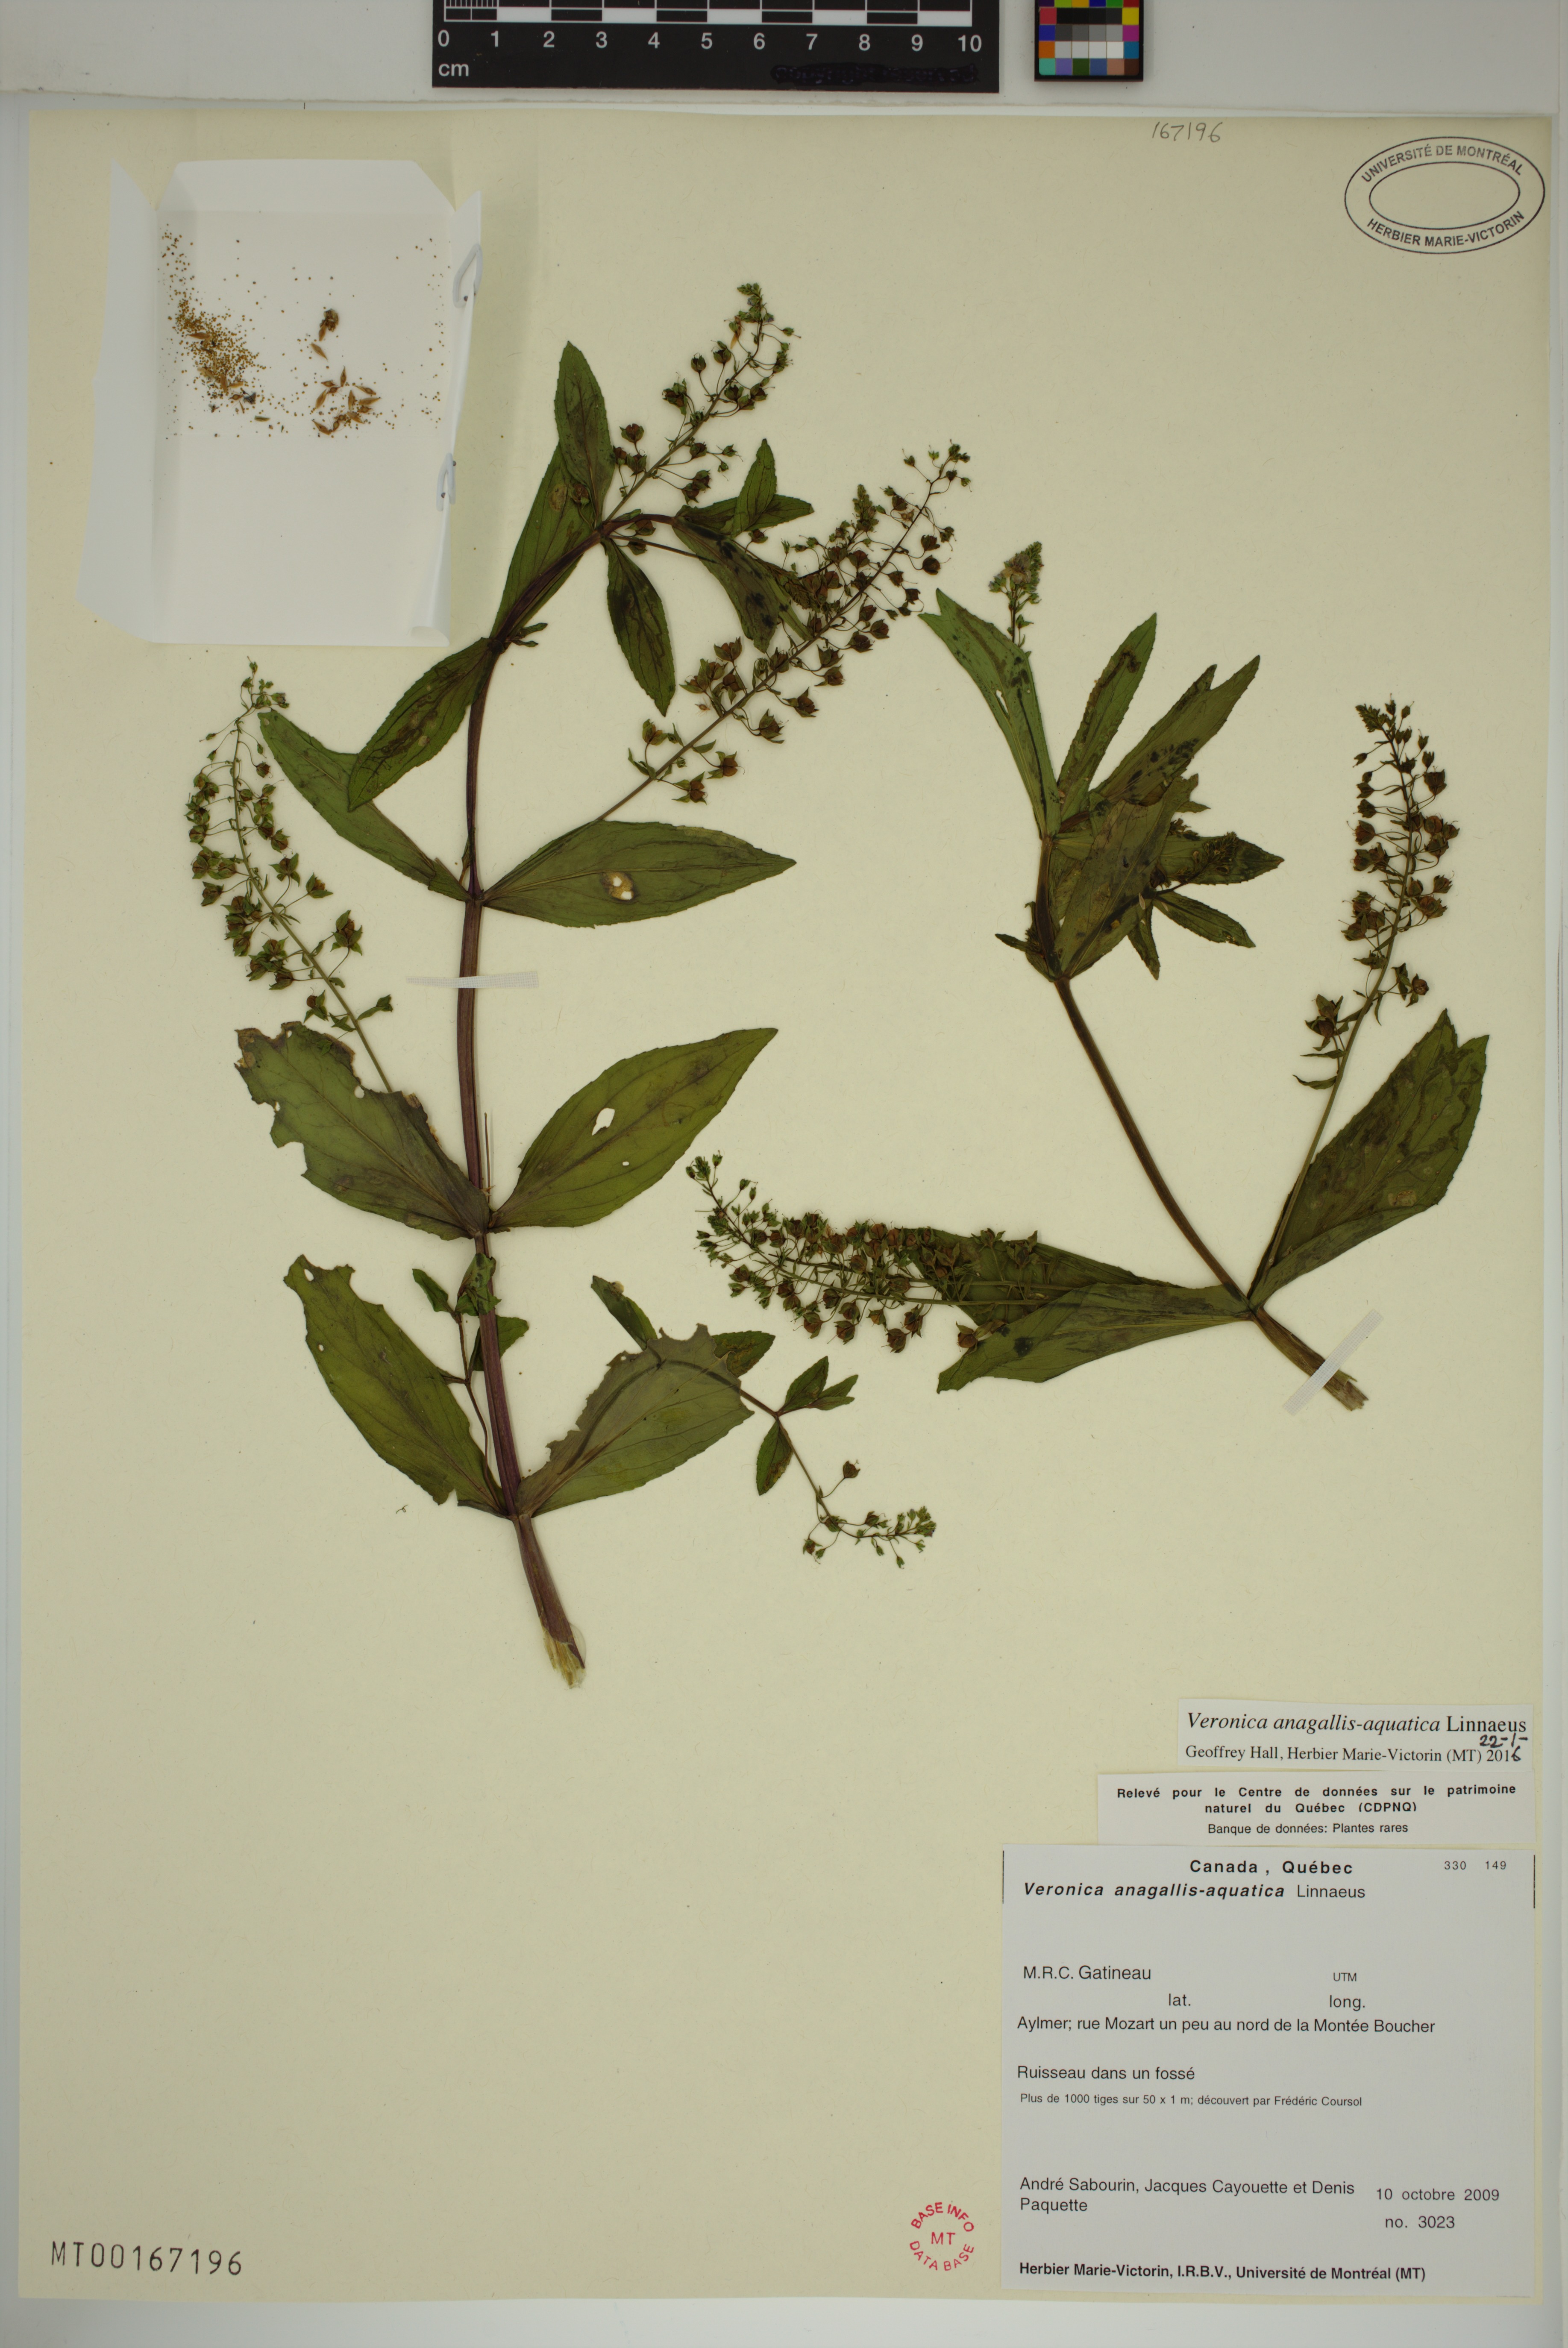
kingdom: Plantae
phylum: Tracheophyta
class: Magnoliopsida
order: Lamiales
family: Plantaginaceae
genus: Veronica
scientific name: Veronica anagallis-aquatica
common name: Water speedwell
